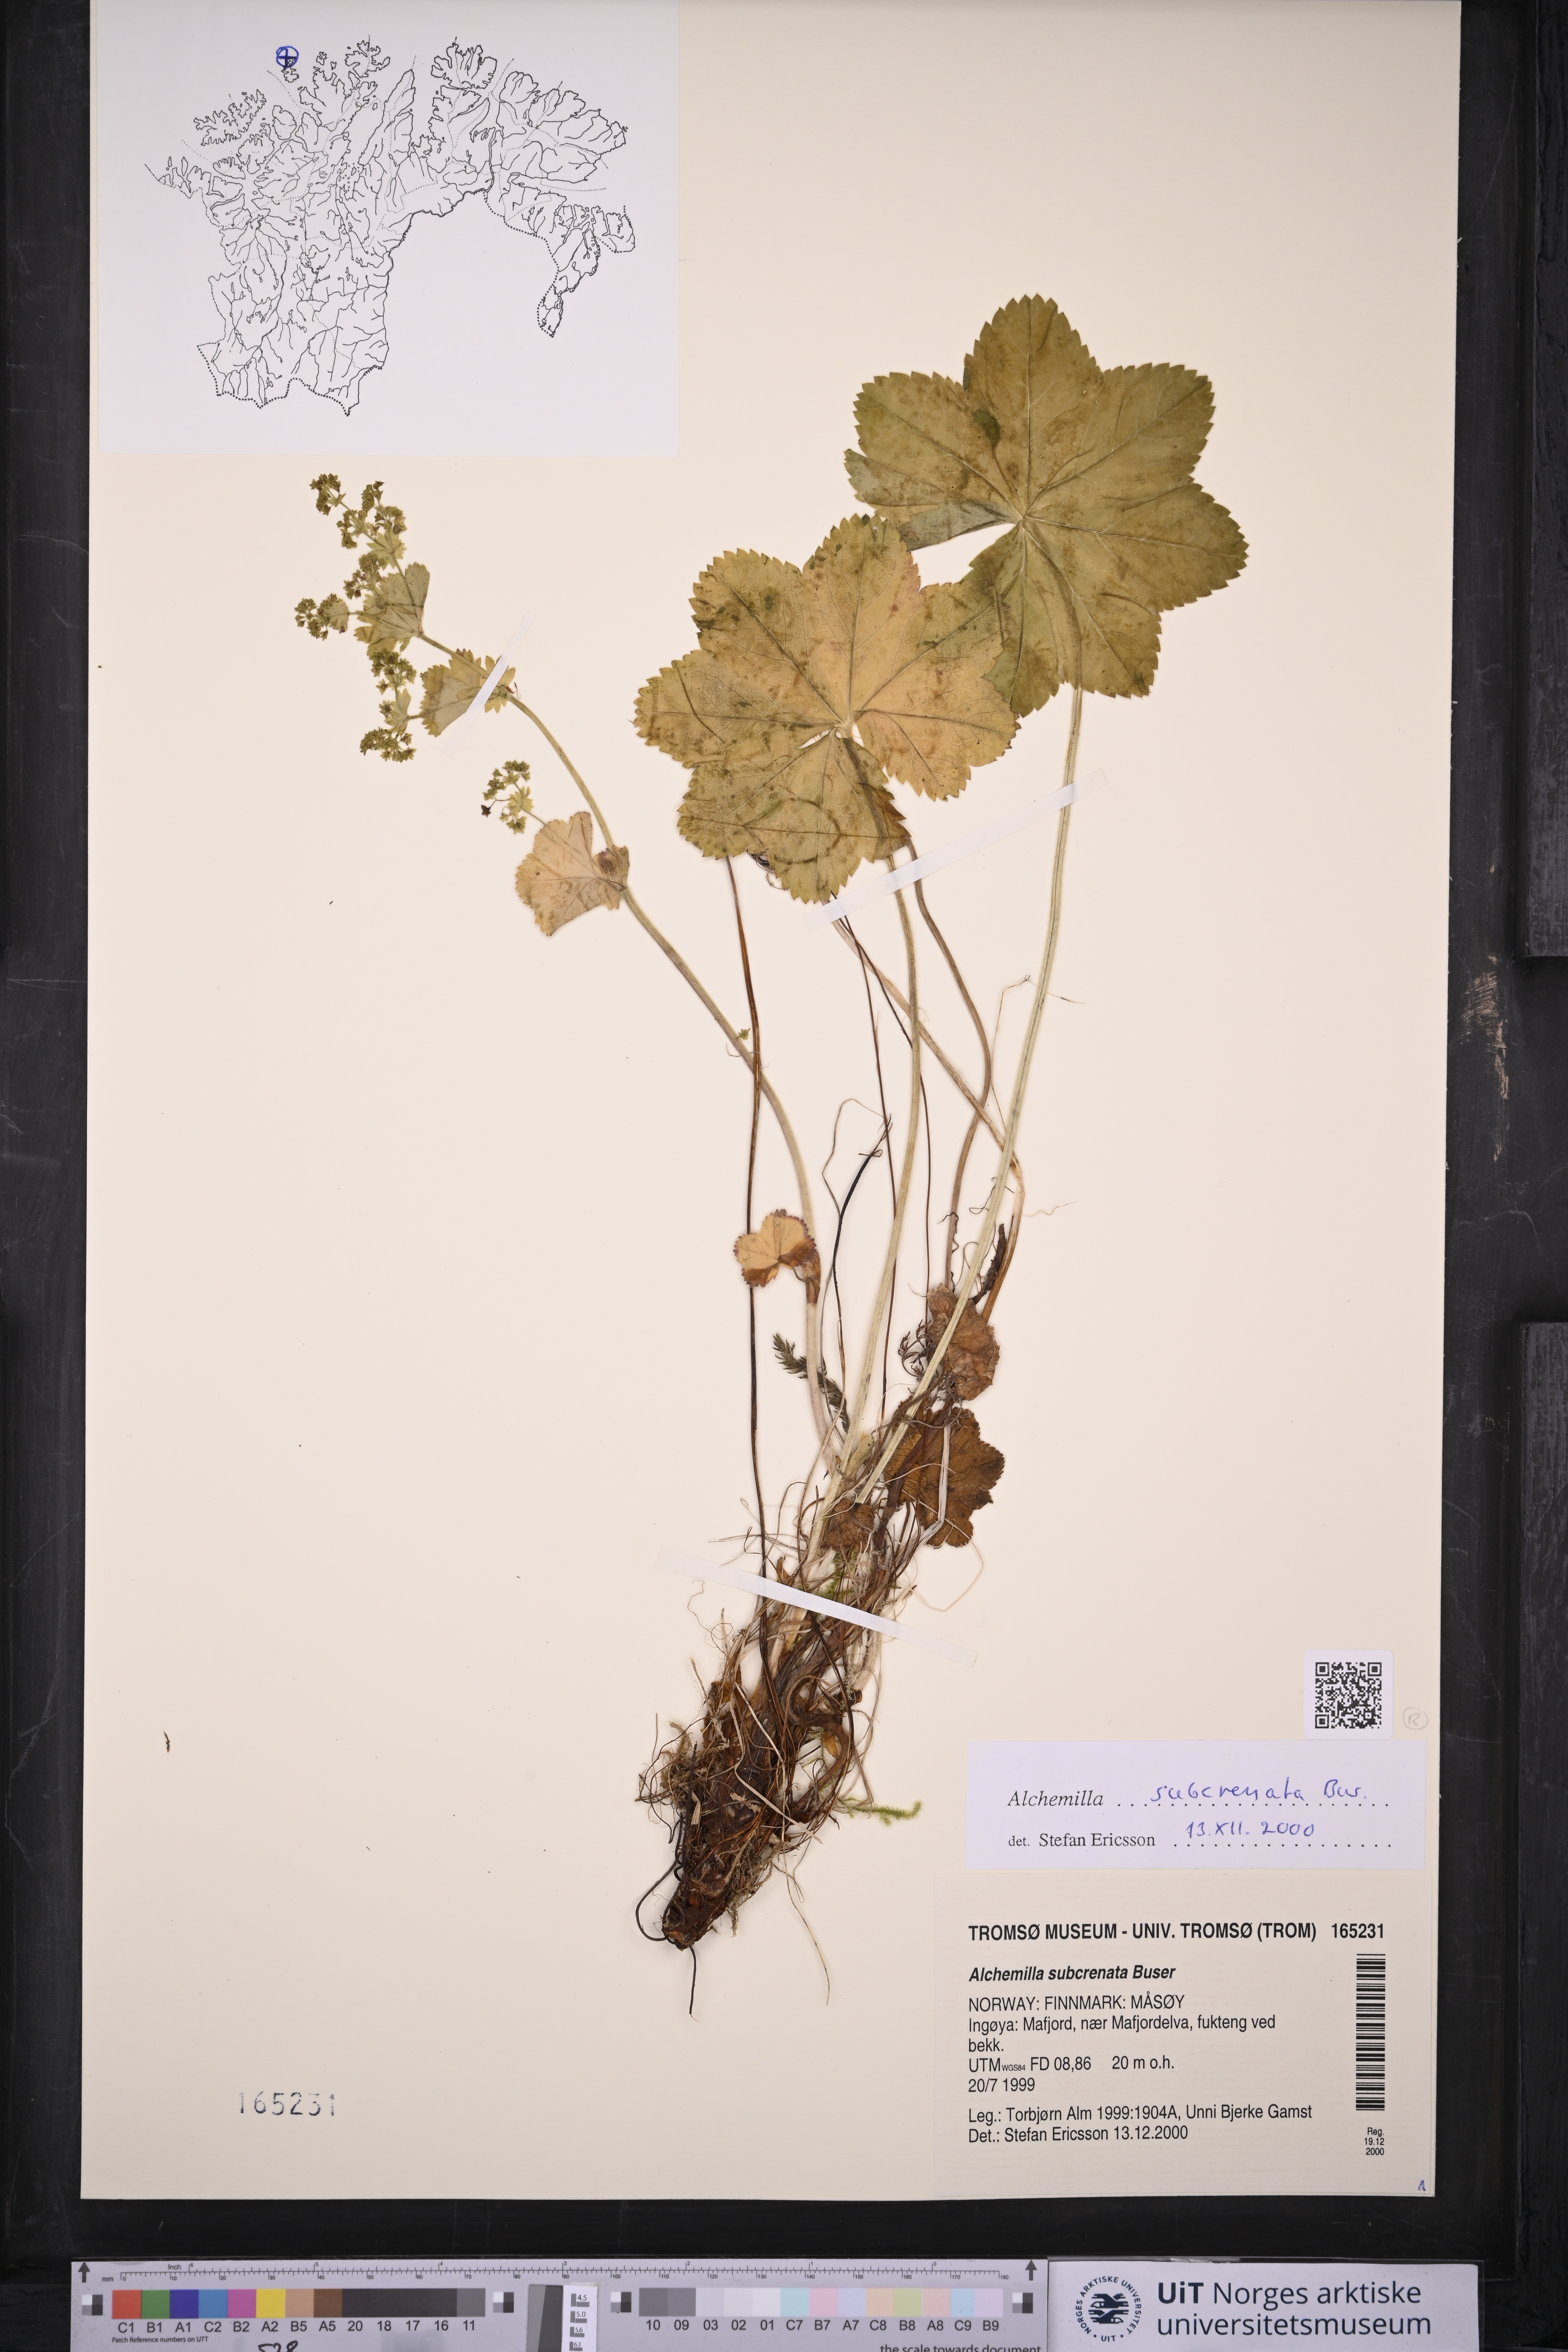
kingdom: Plantae
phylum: Tracheophyta
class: Magnoliopsida
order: Rosales
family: Rosaceae
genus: Alchemilla
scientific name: Alchemilla subcrenata
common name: Broadtooth lady's mantle
